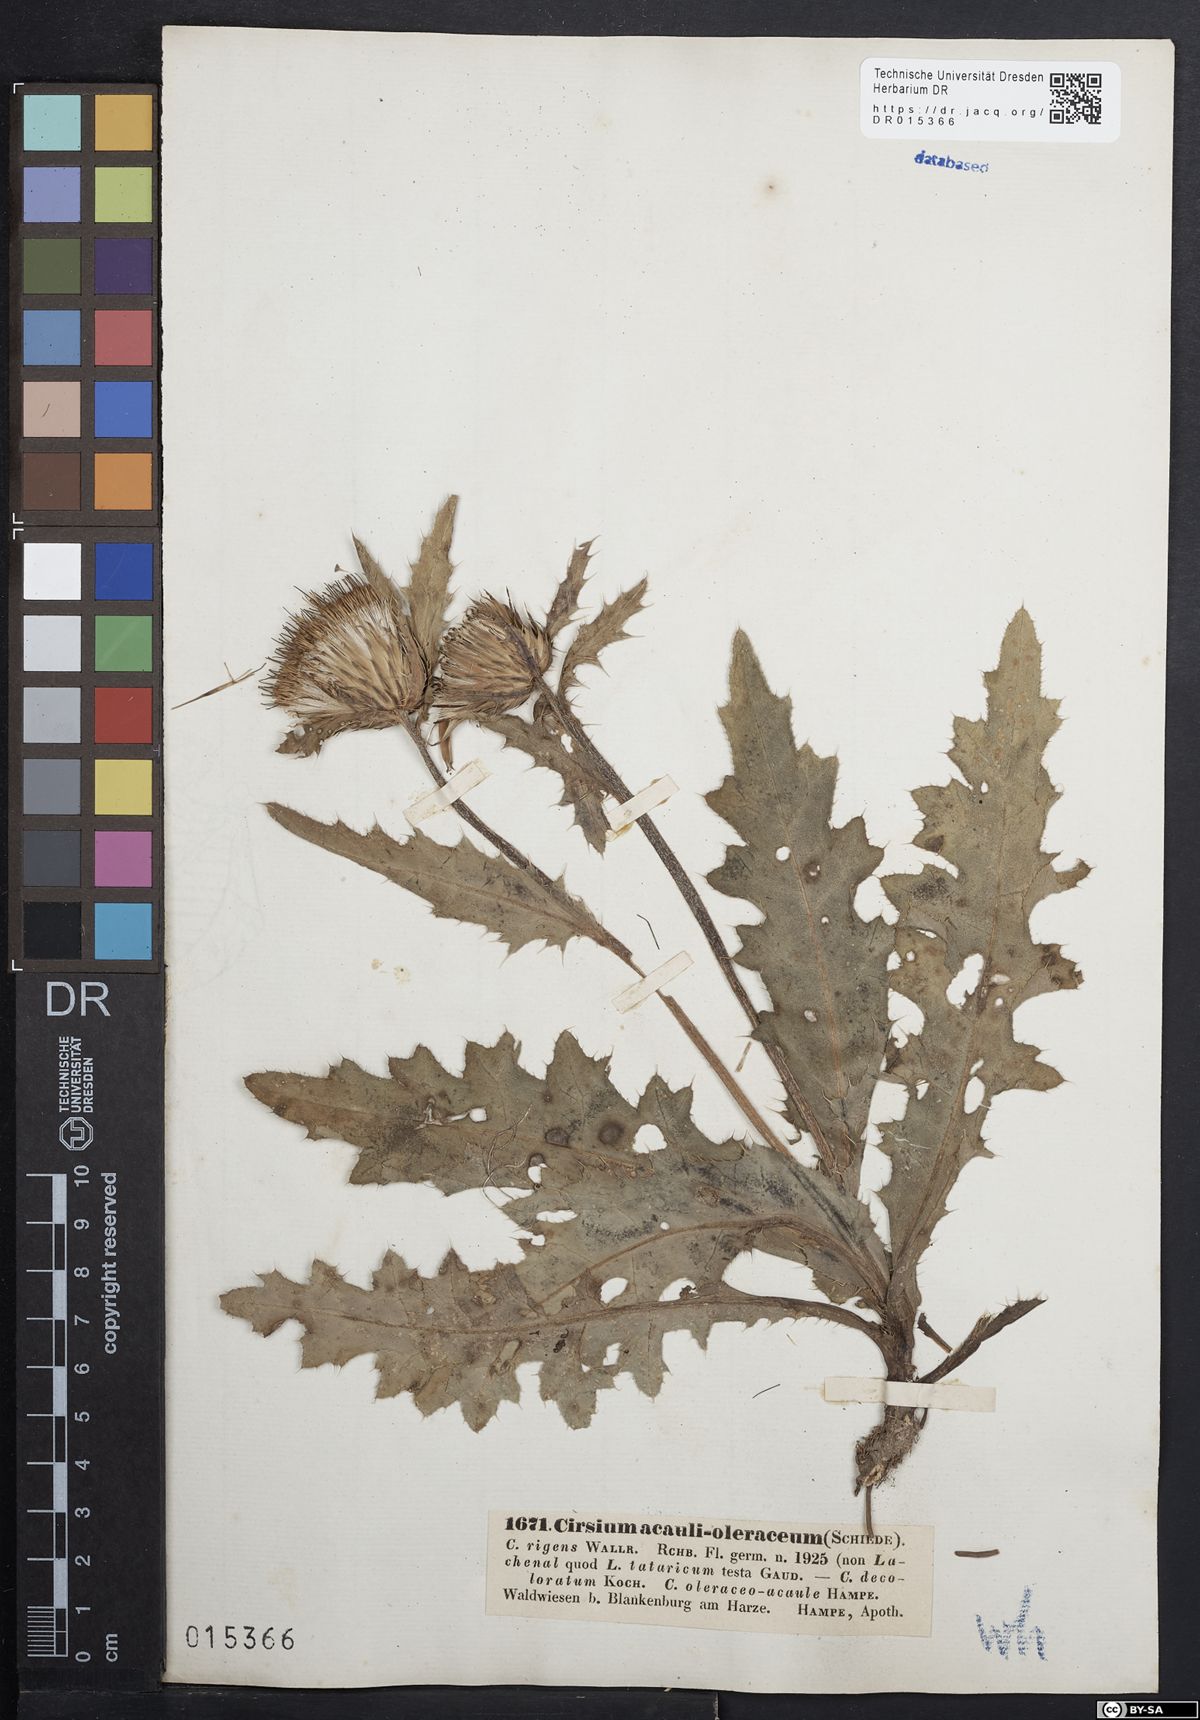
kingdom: Plantae
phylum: Tracheophyta
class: Magnoliopsida
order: Asterales
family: Asteraceae
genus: Cirsium
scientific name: Cirsium rigens
